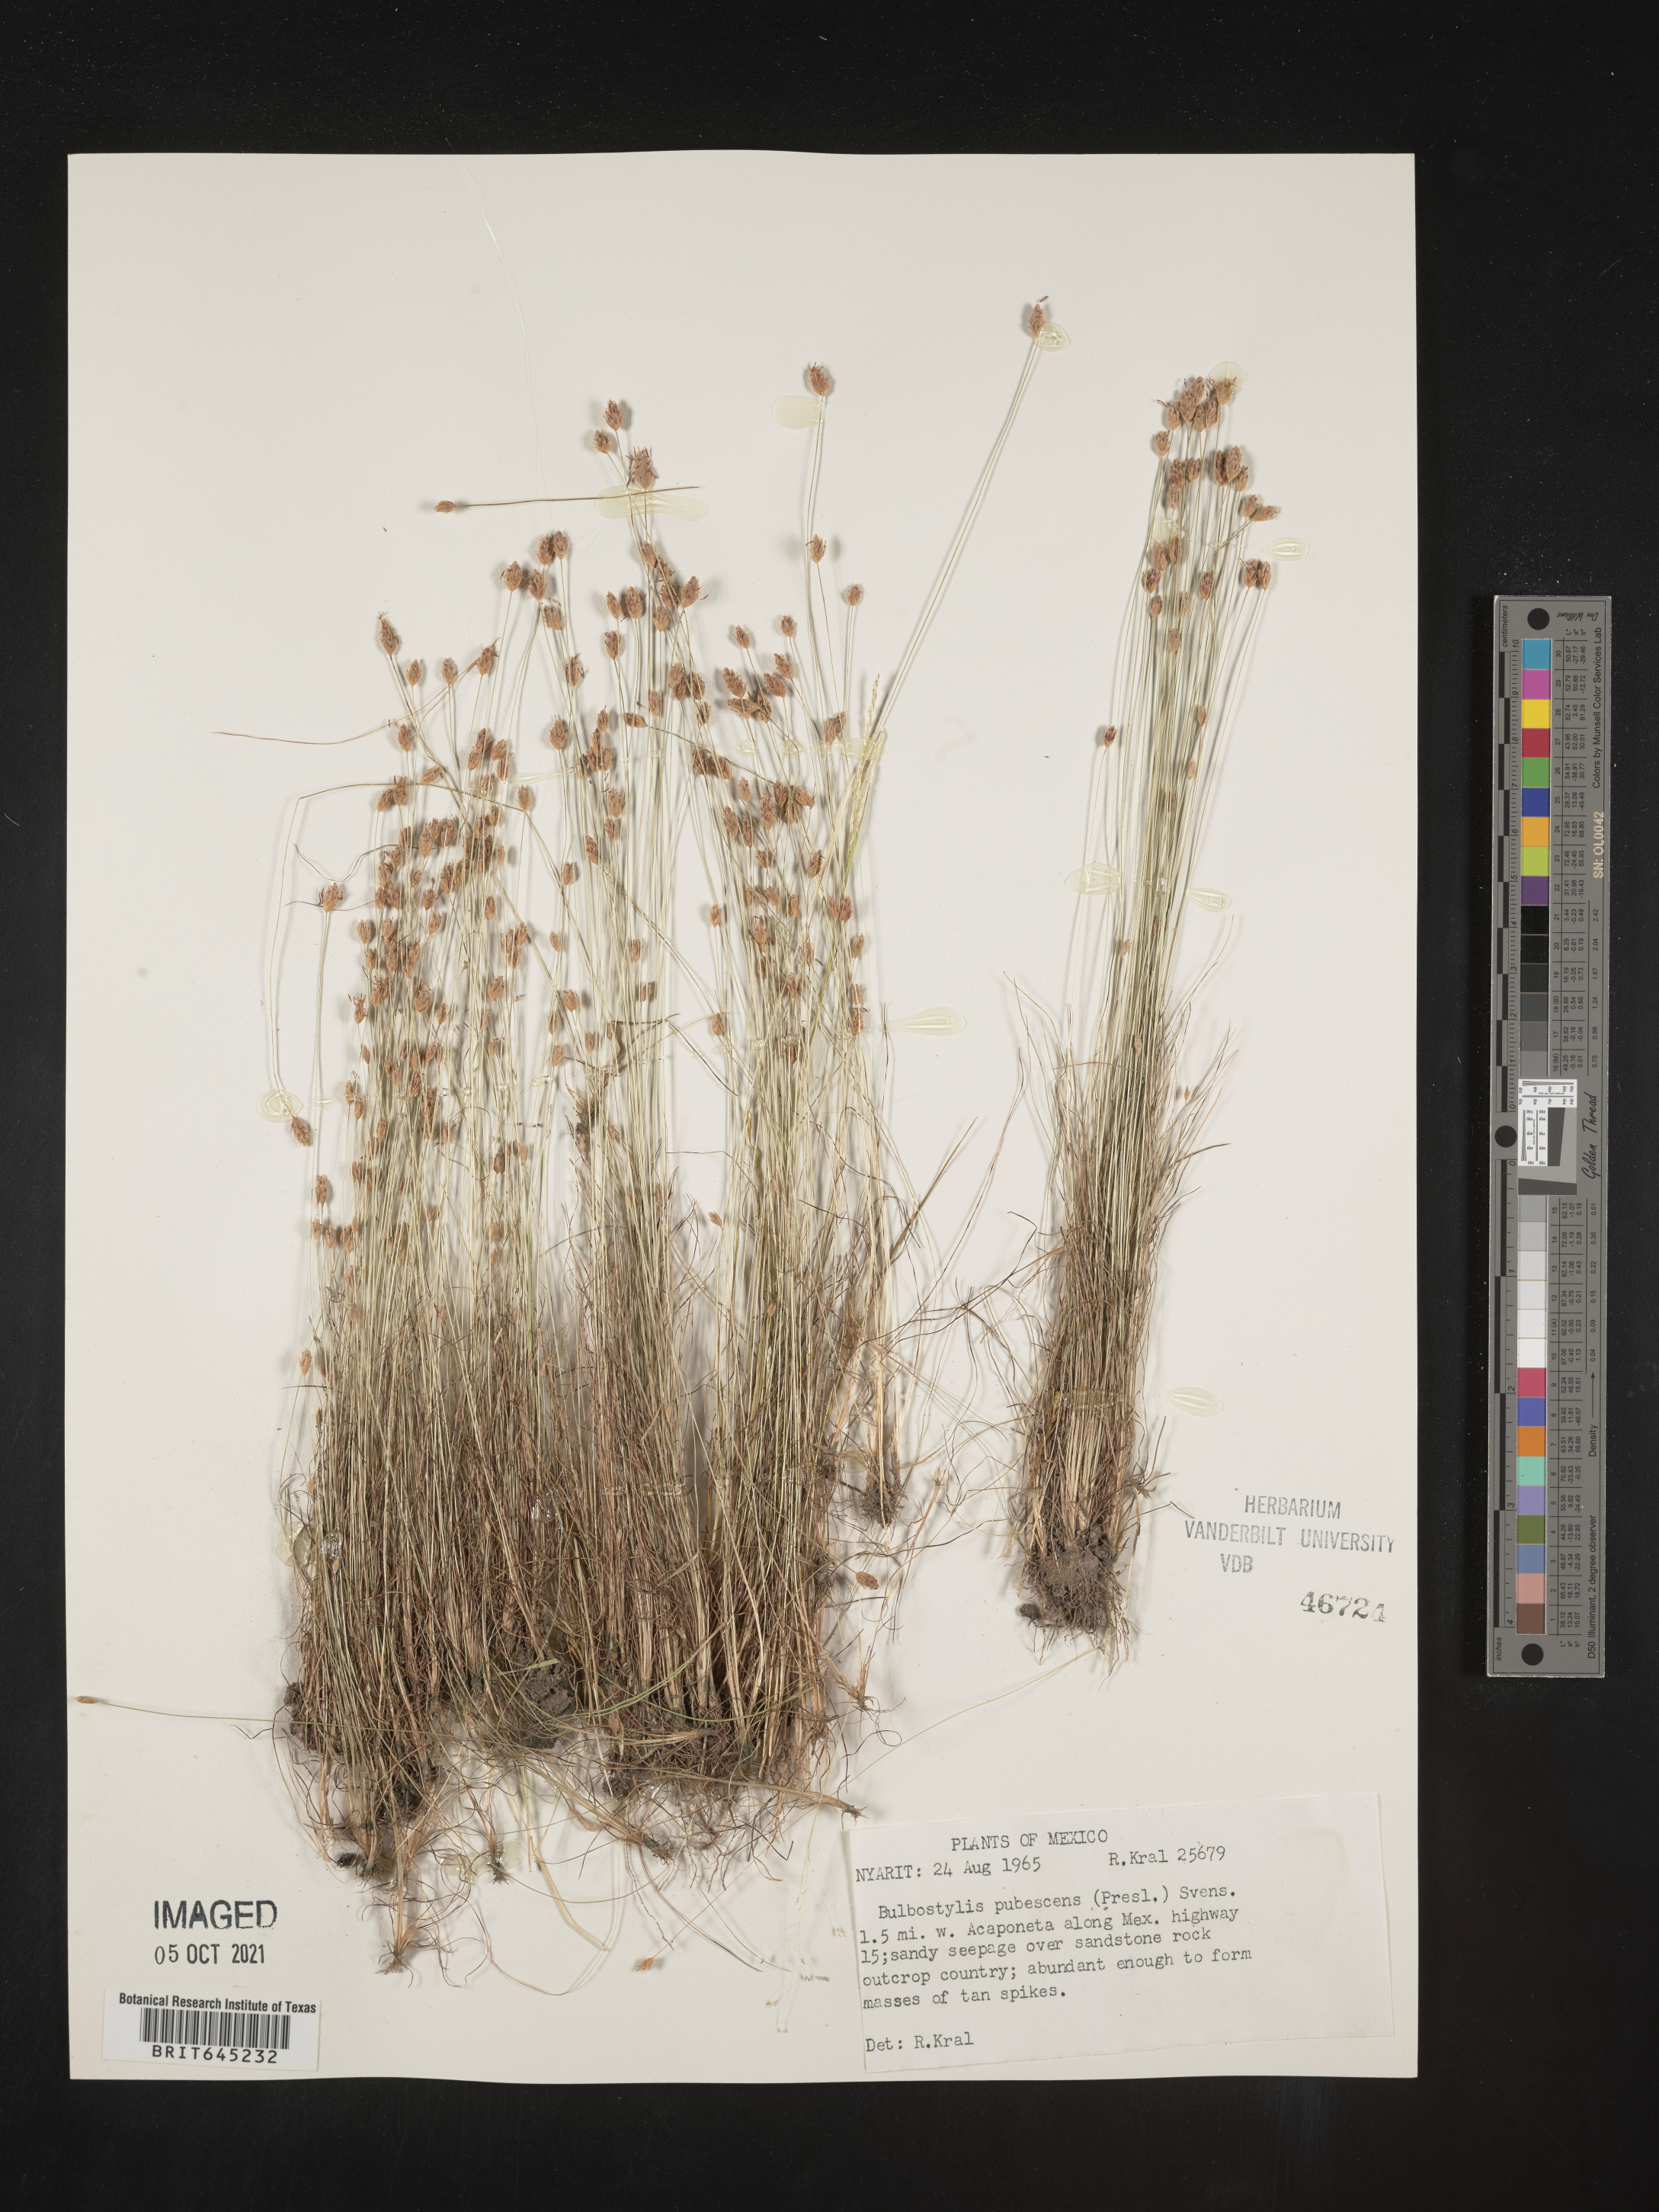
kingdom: Plantae
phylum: Tracheophyta
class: Liliopsida
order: Poales
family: Cyperaceae
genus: Bulbostylis
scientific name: Bulbostylis pubescens
